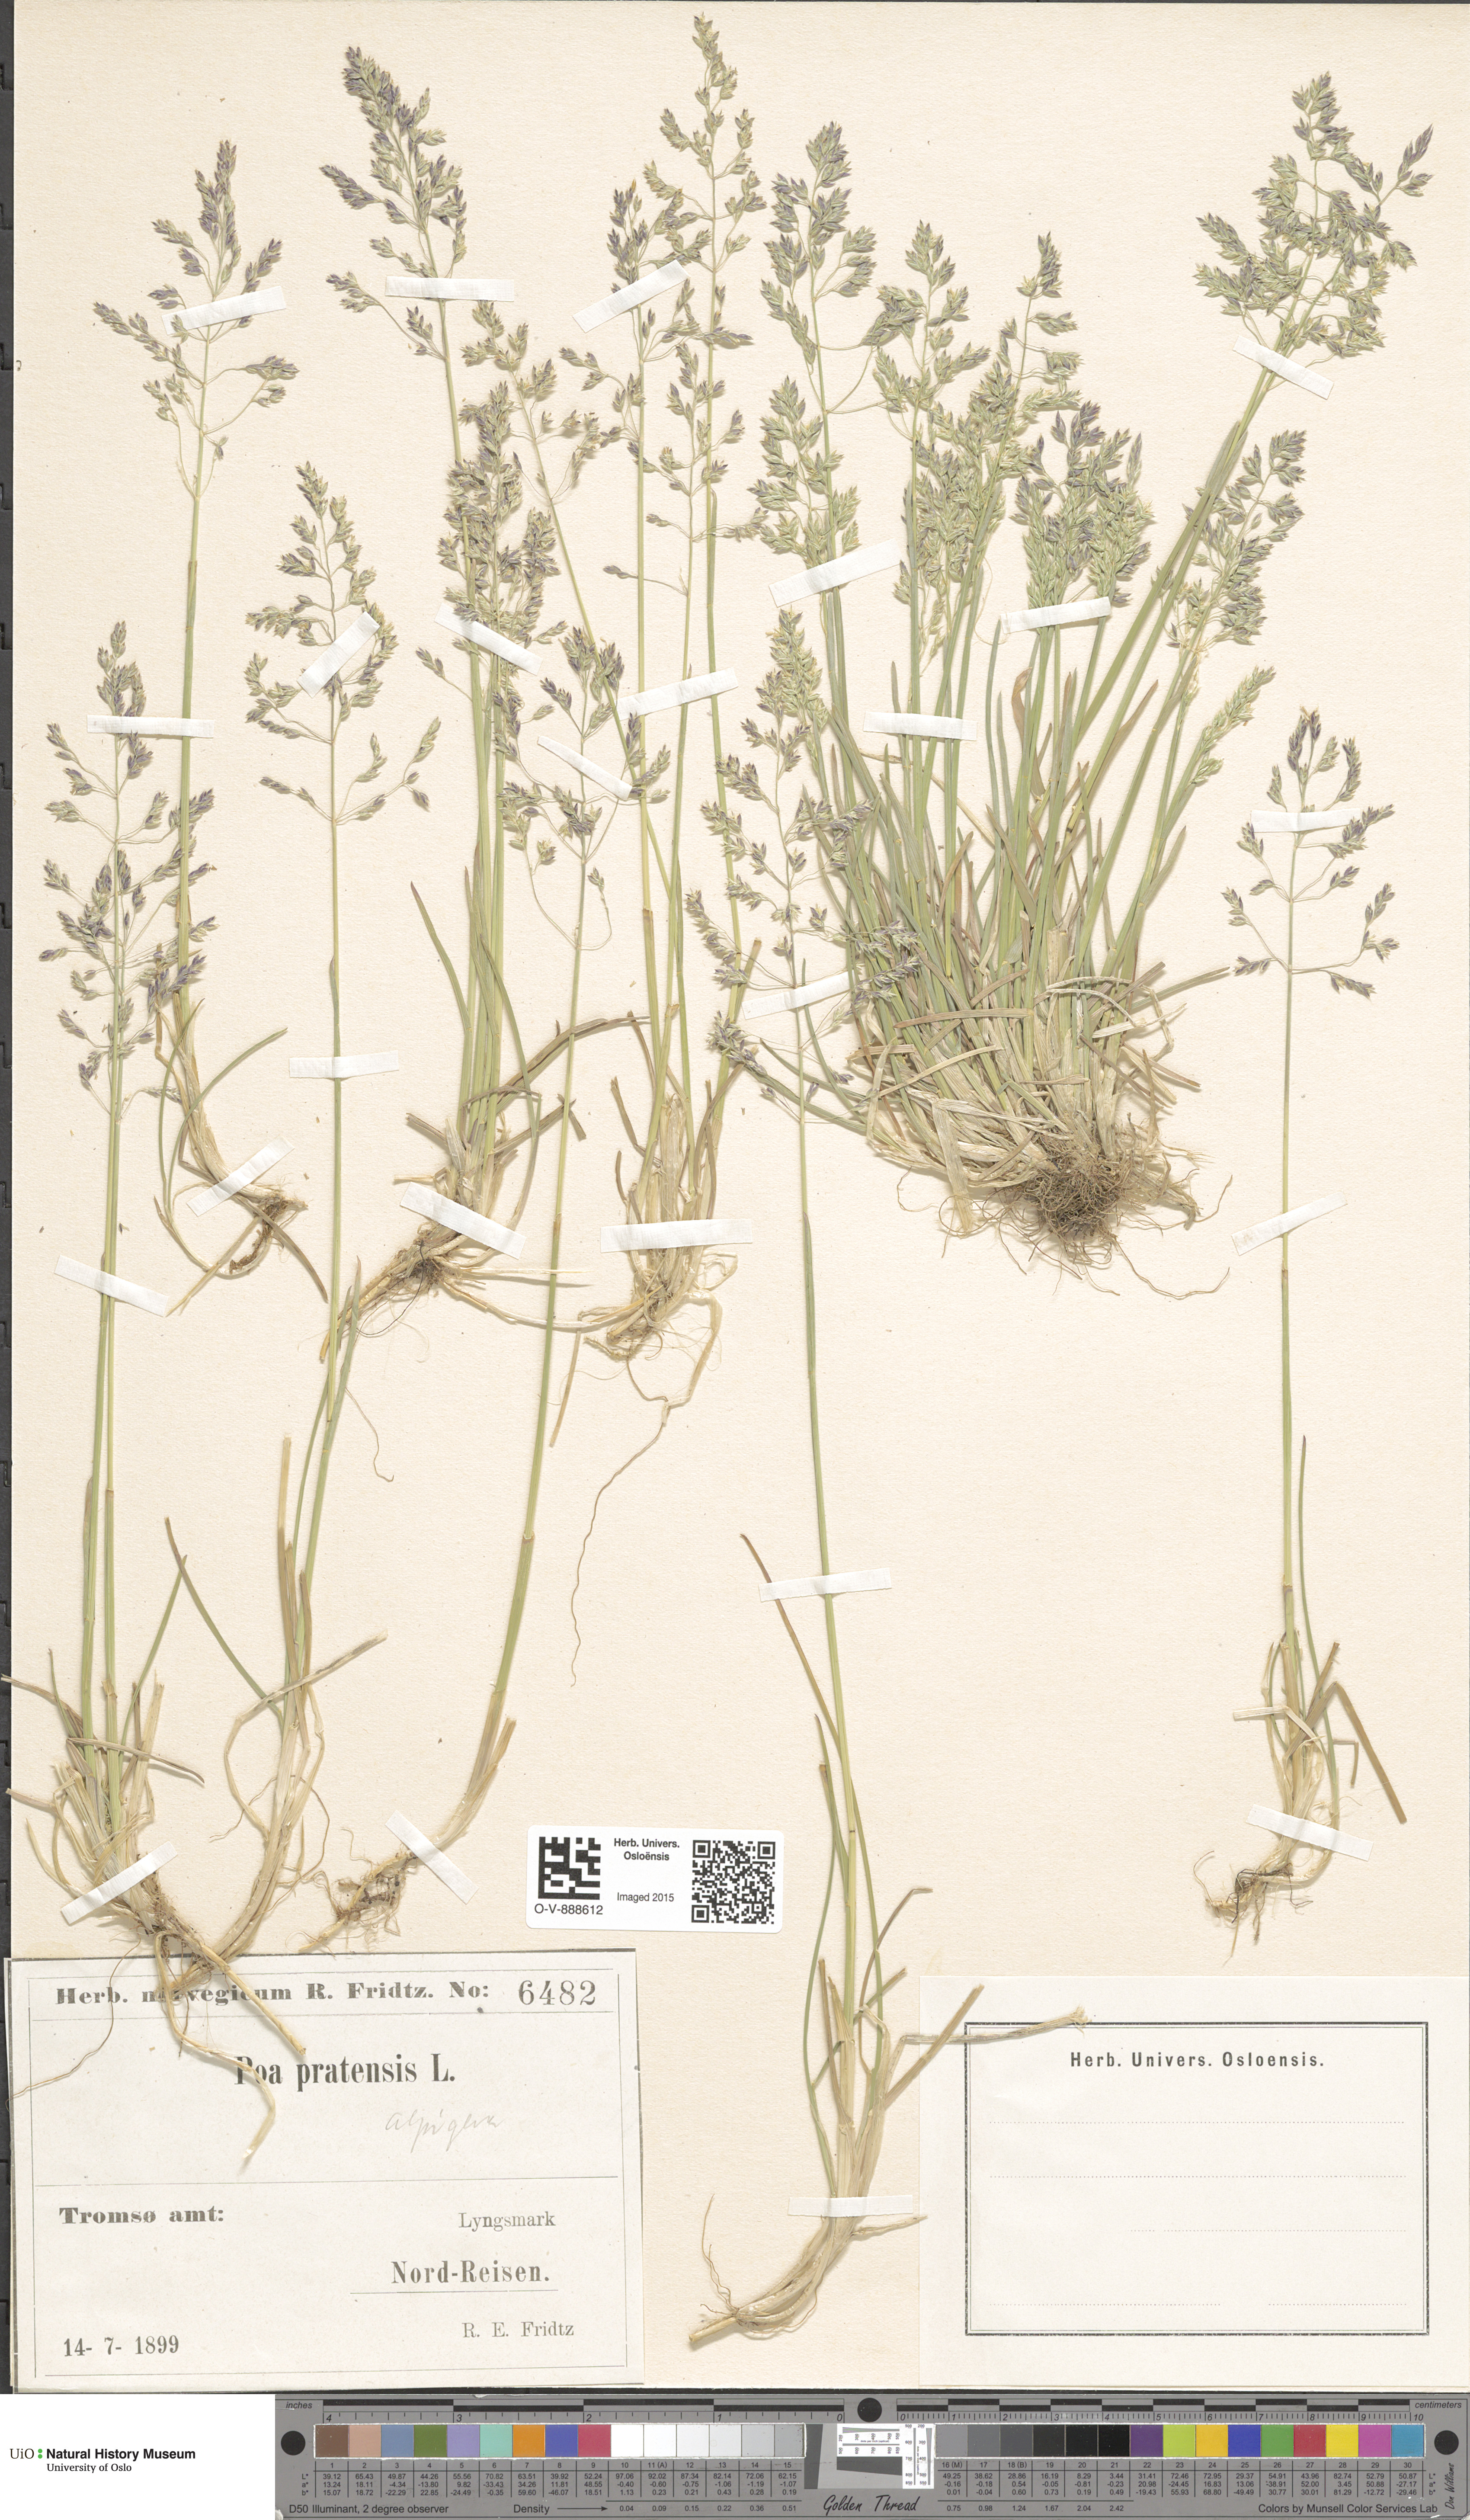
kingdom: Plantae
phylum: Tracheophyta
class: Liliopsida
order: Poales
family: Poaceae
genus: Poa
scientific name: Poa alpigena
